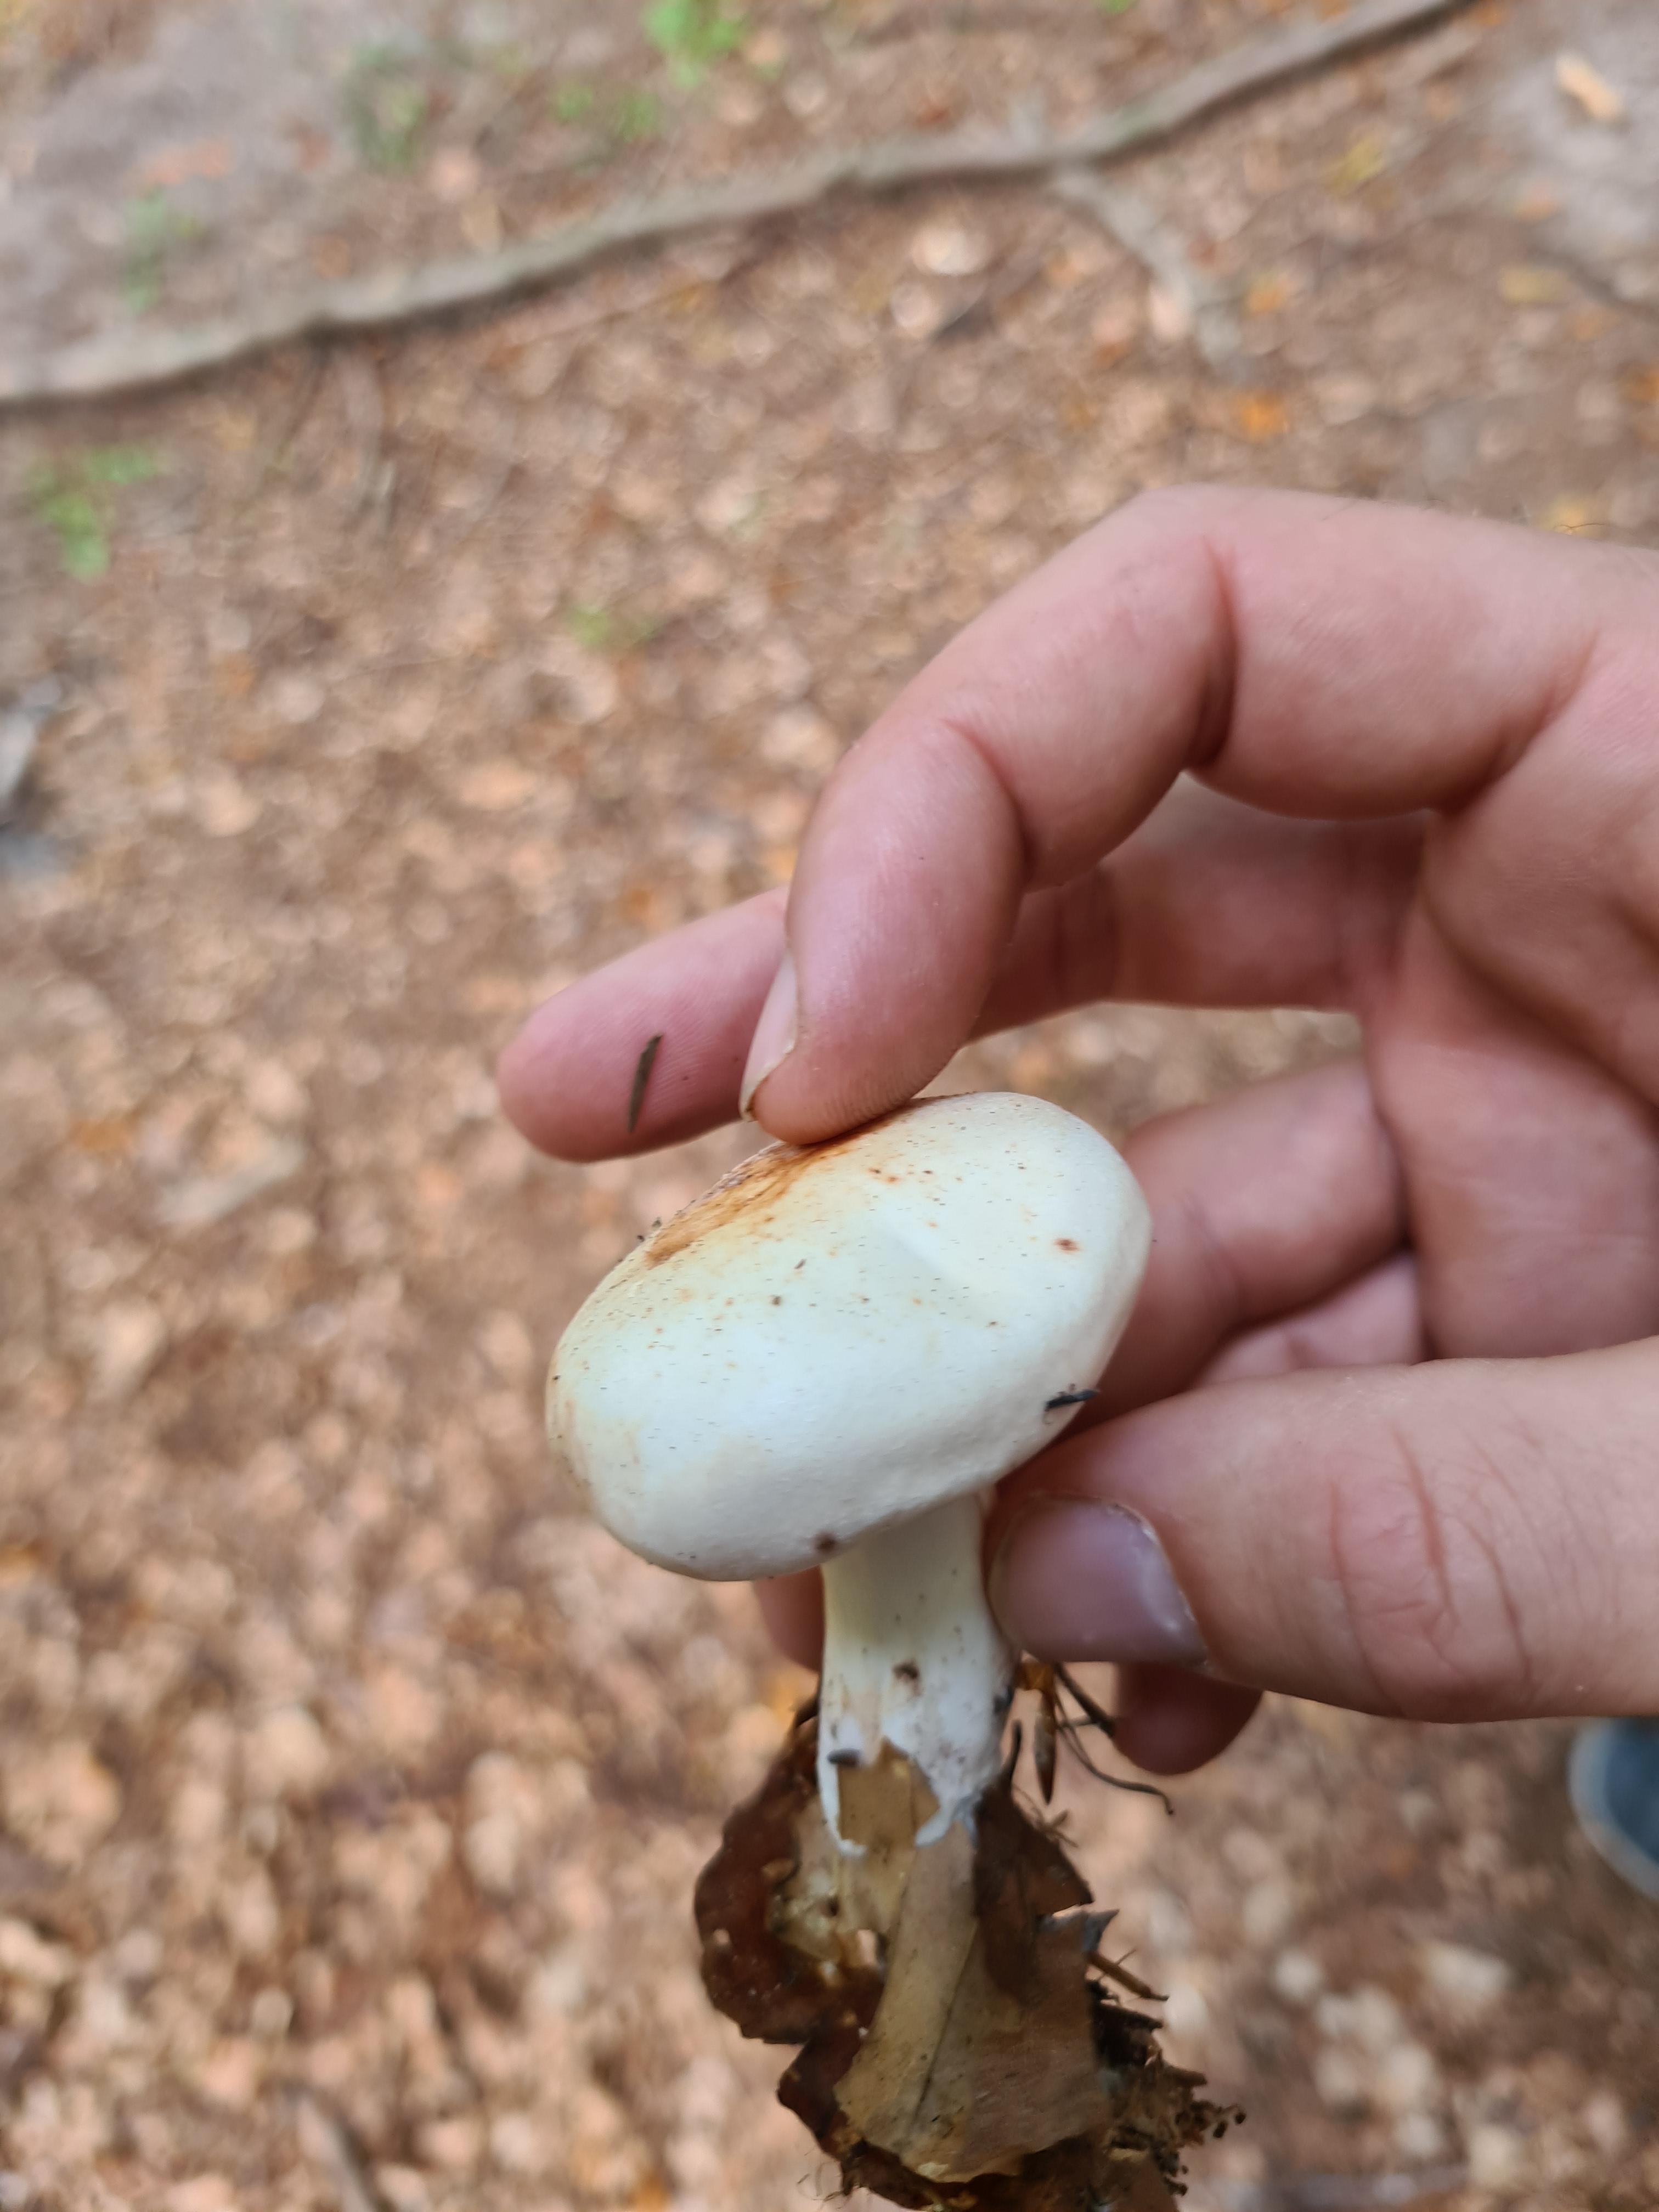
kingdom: Fungi
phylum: Basidiomycota
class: Agaricomycetes
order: Agaricales
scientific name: Agaricales
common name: champignonordenen
